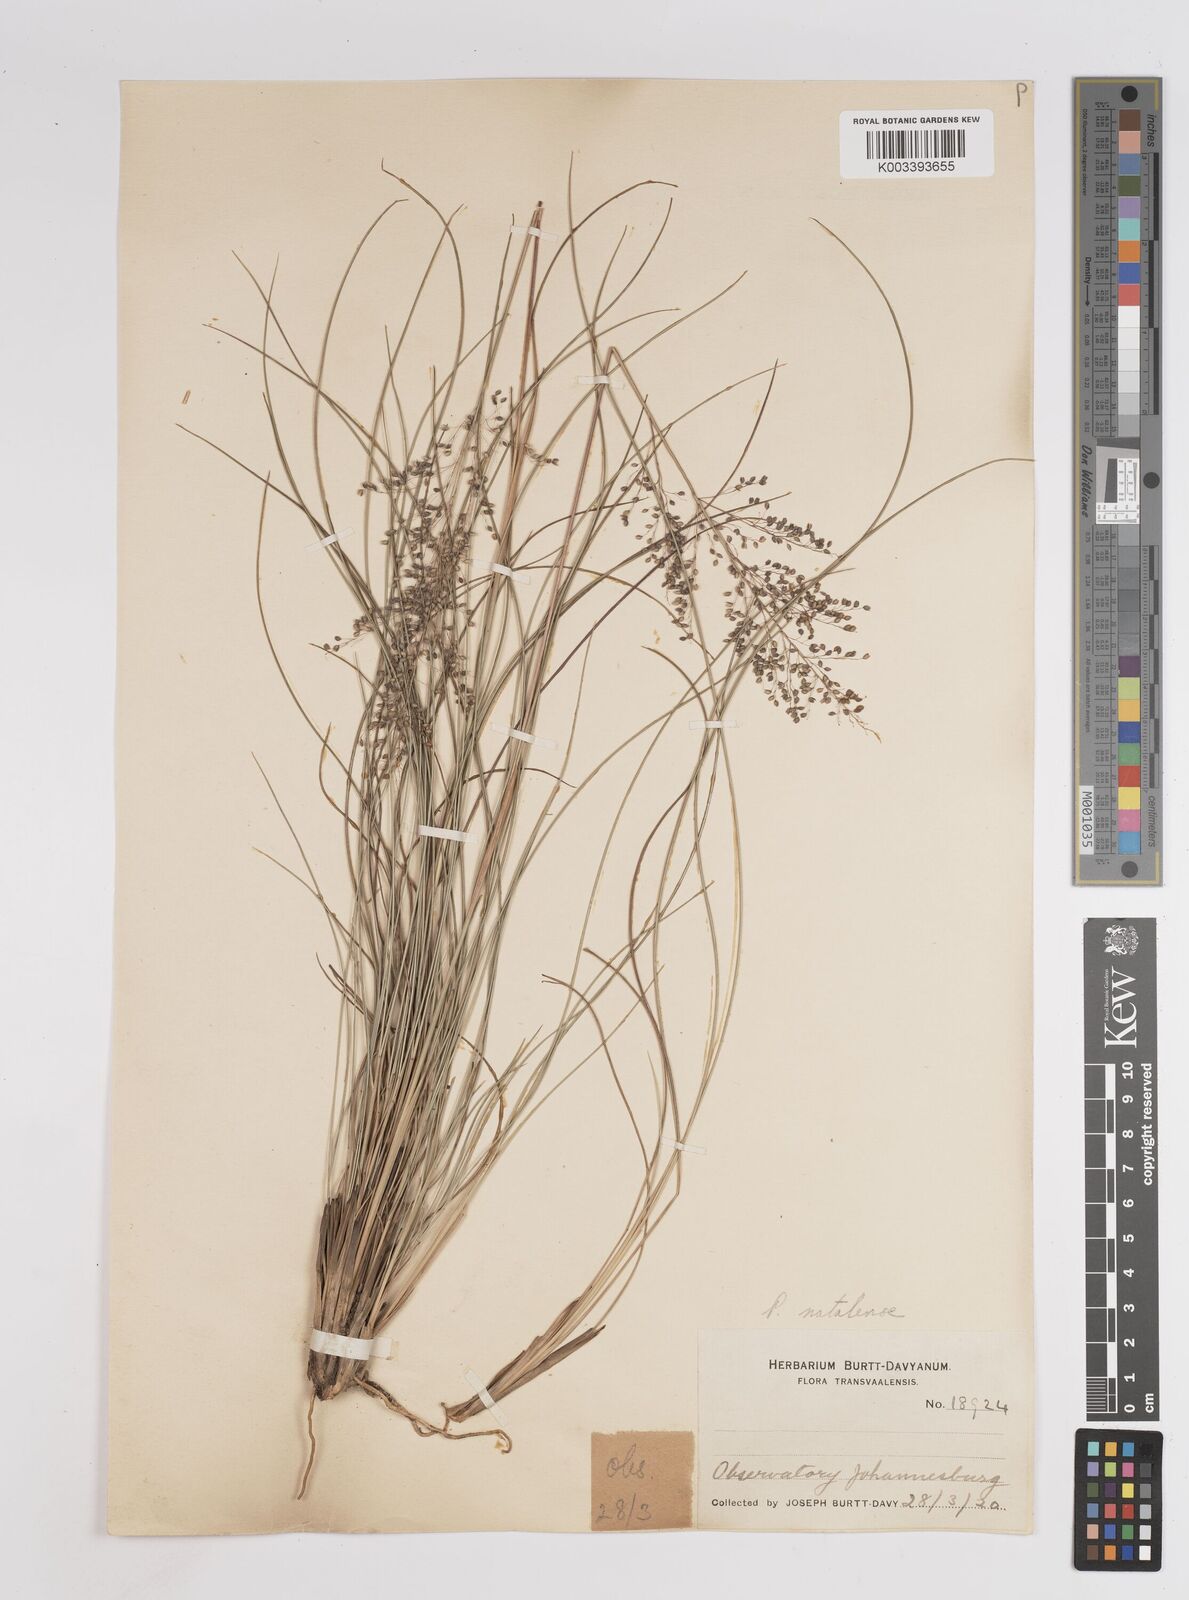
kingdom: Plantae
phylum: Tracheophyta
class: Liliopsida
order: Poales
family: Poaceae
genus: Trichanthecium
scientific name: Trichanthecium natalense
